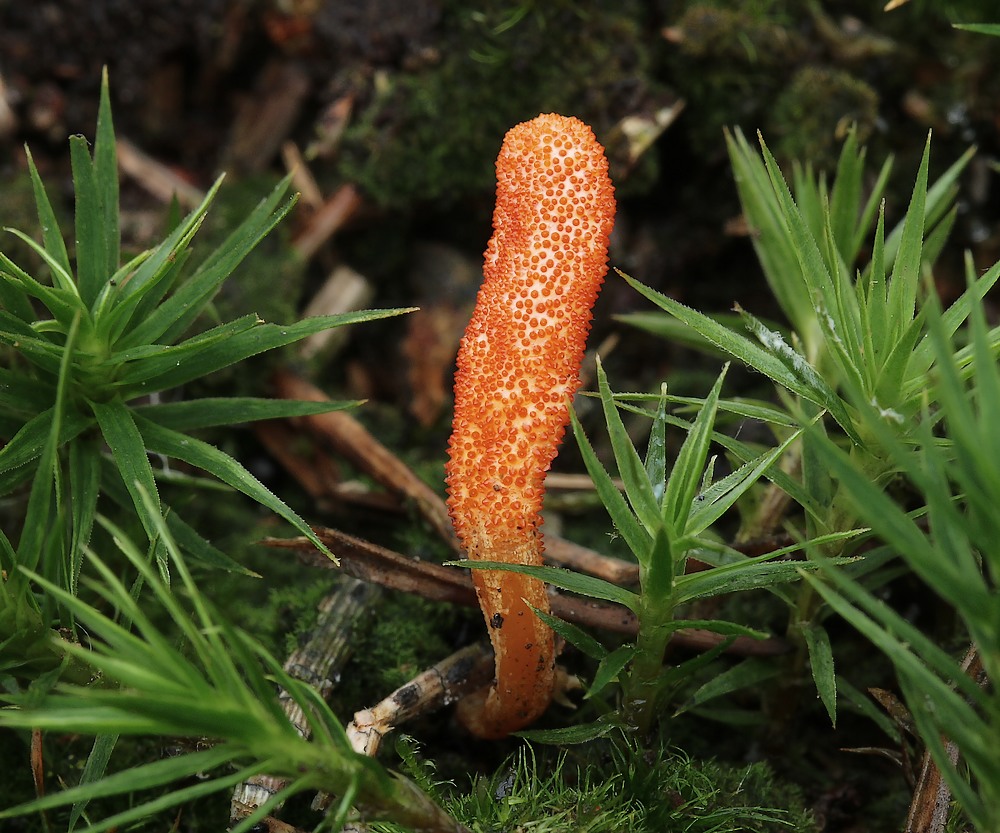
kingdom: Fungi
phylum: Ascomycota
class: Sordariomycetes
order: Hypocreales
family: Cordycipitaceae
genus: Cordyceps
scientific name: Cordyceps militaris
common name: puppe-snyltekølle
